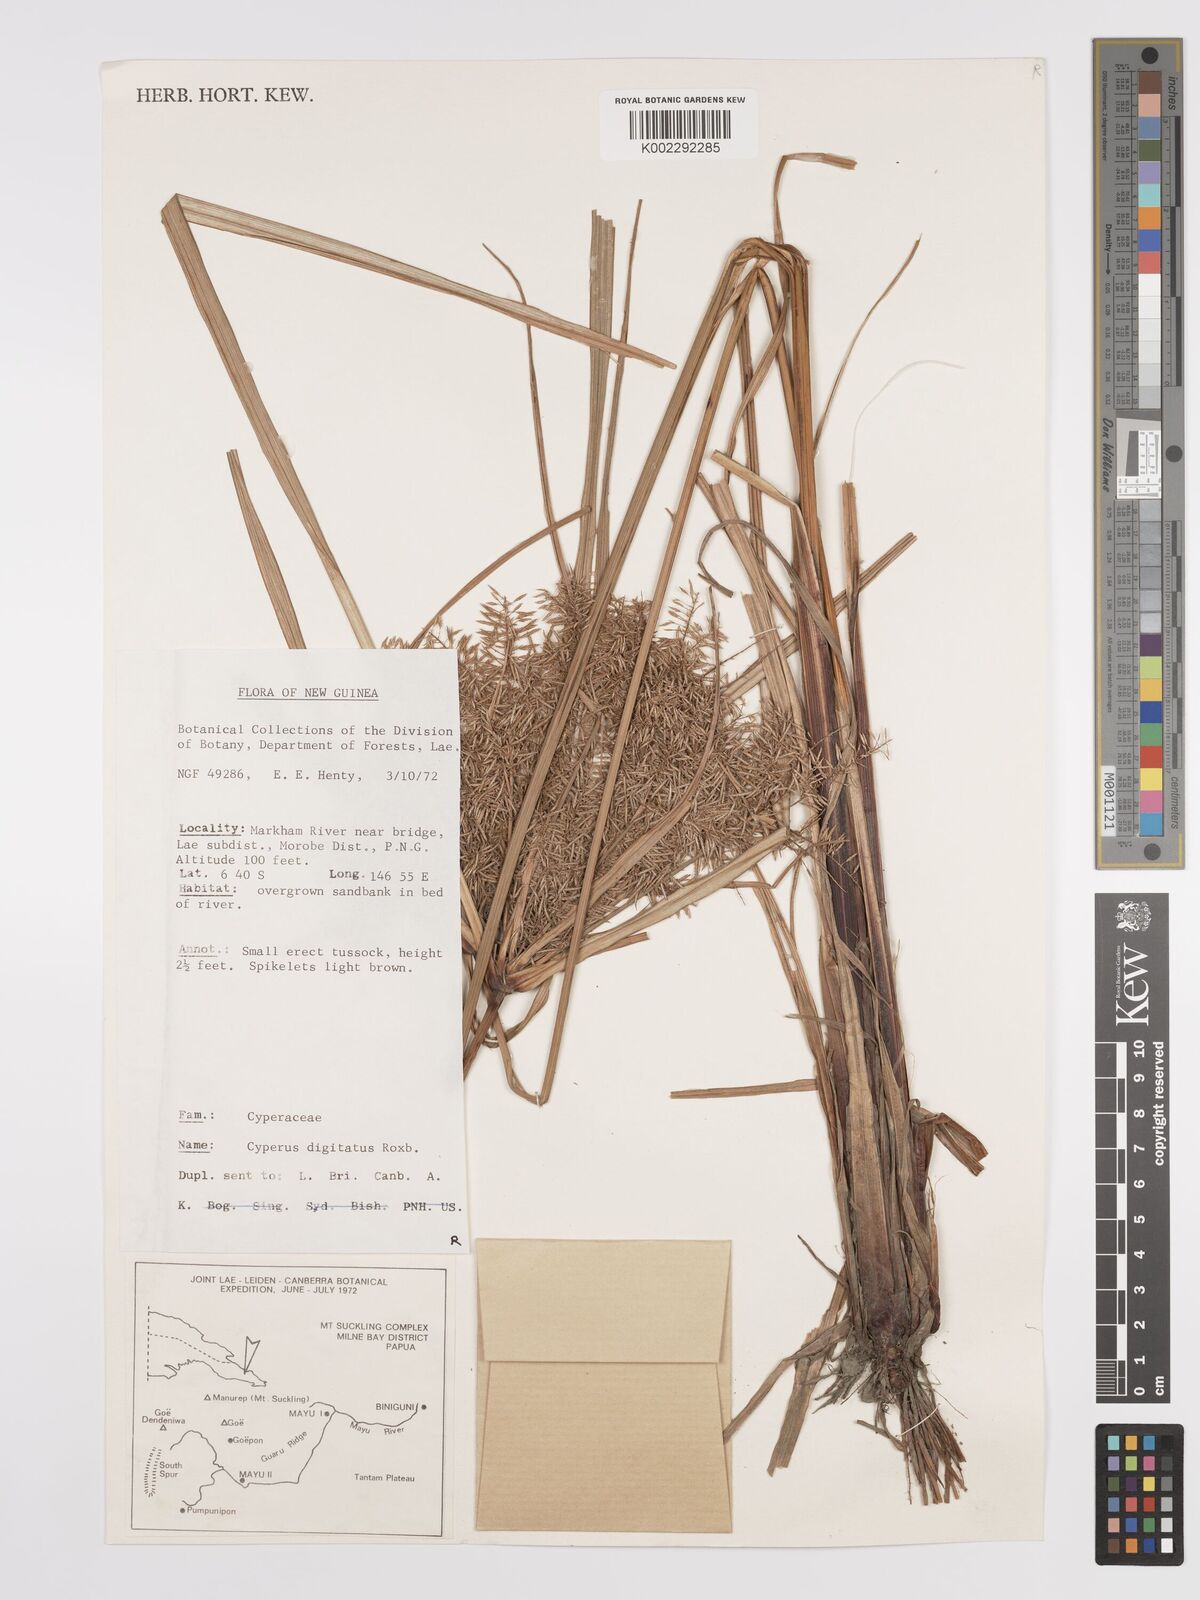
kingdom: Plantae
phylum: Tracheophyta
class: Liliopsida
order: Poales
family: Cyperaceae
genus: Cyperus
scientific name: Cyperus digitatus
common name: Finger flatsedge
